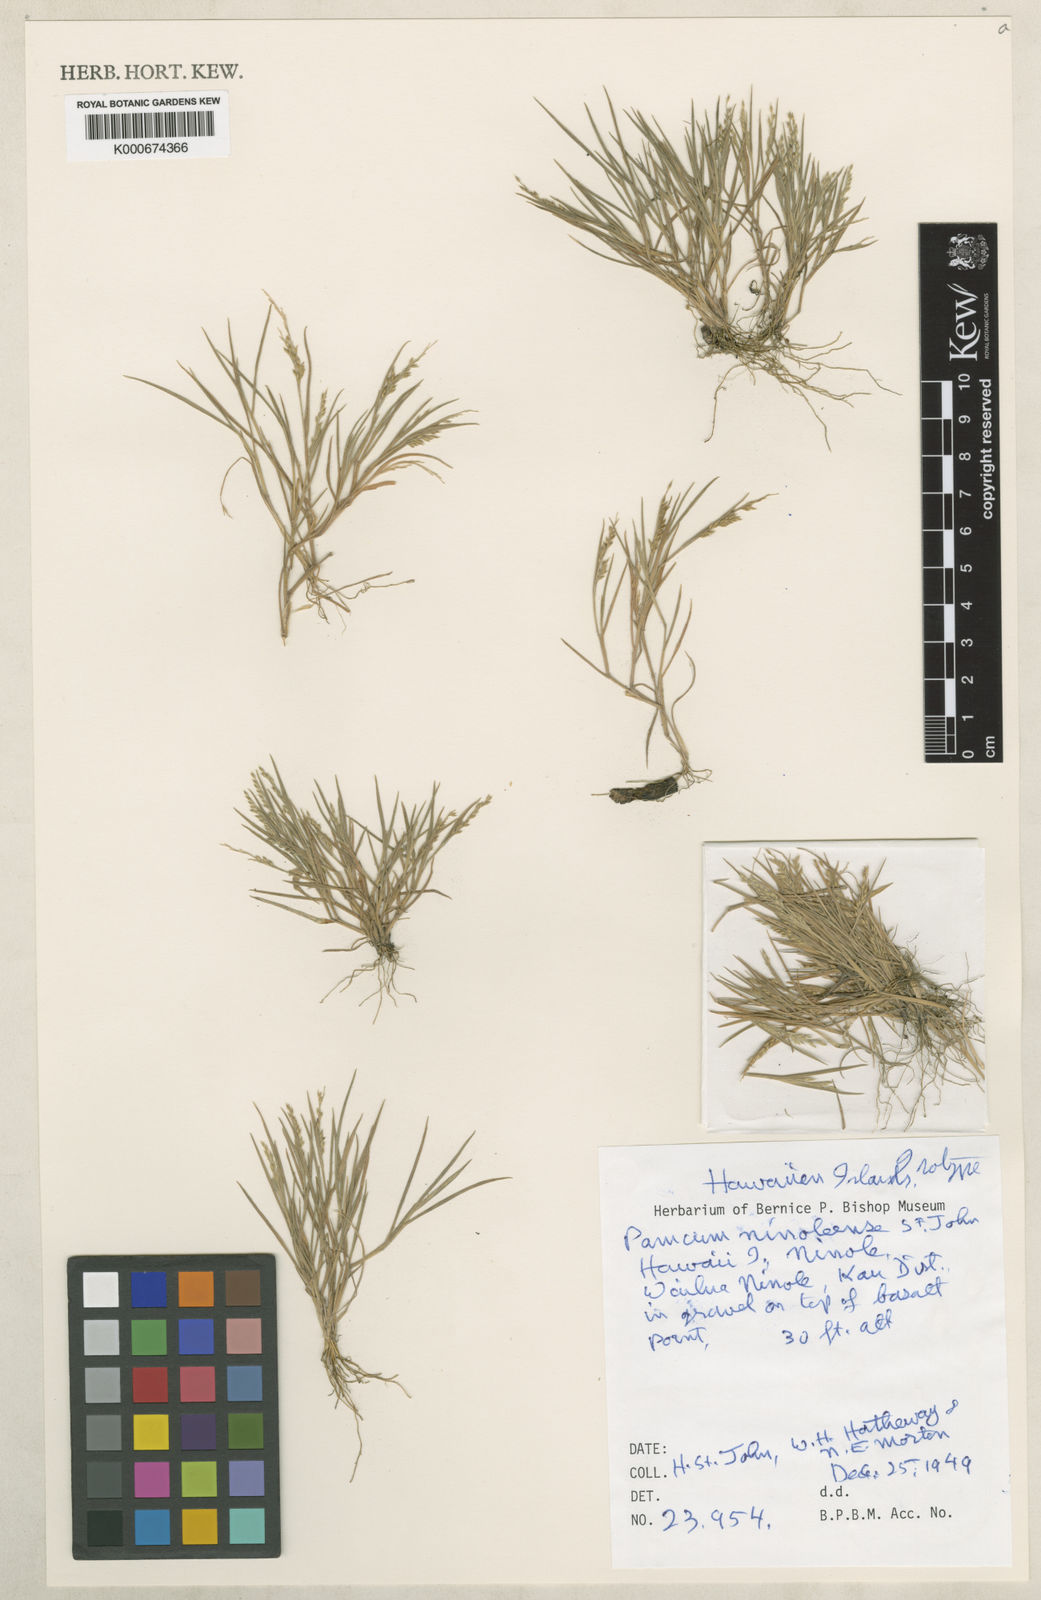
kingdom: Plantae
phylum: Tracheophyta
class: Liliopsida
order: Poales
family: Poaceae
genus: Panicum
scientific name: Panicum fauriei
